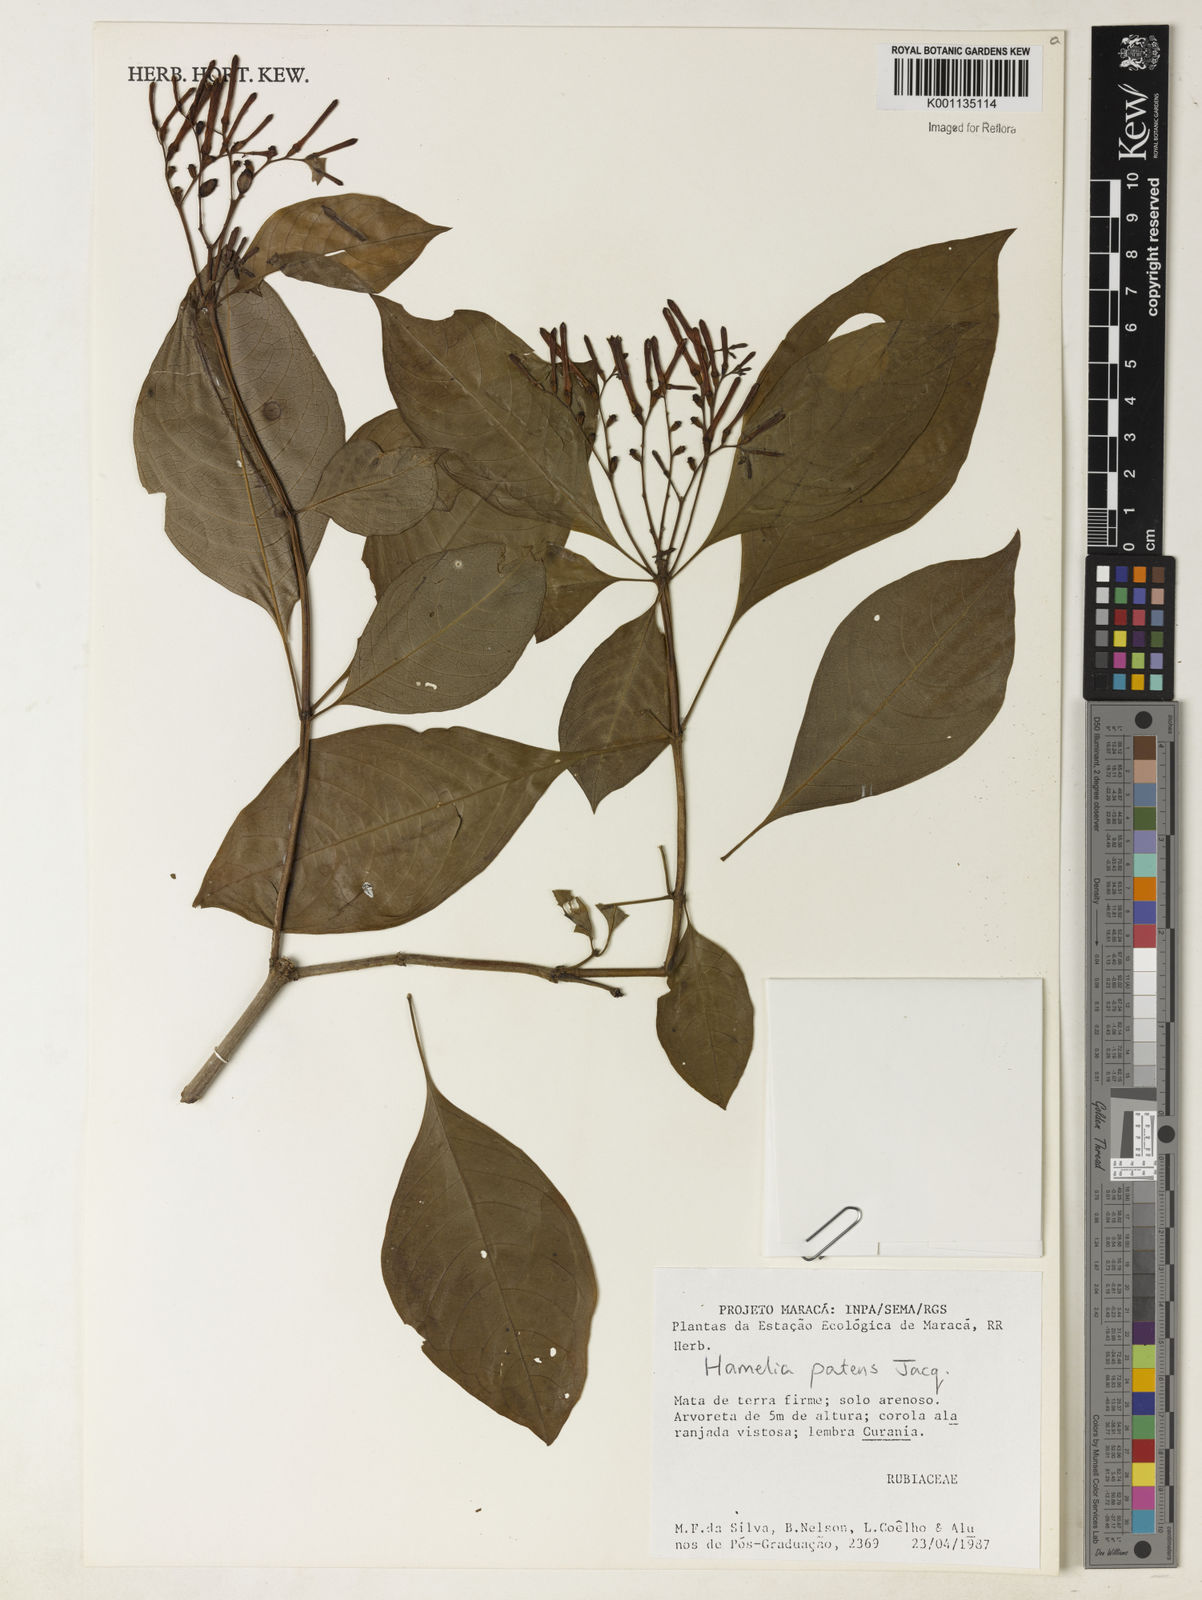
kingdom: Plantae
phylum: Tracheophyta
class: Magnoliopsida
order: Gentianales
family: Rubiaceae
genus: Hamelia
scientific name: Hamelia patens
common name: Redhead
